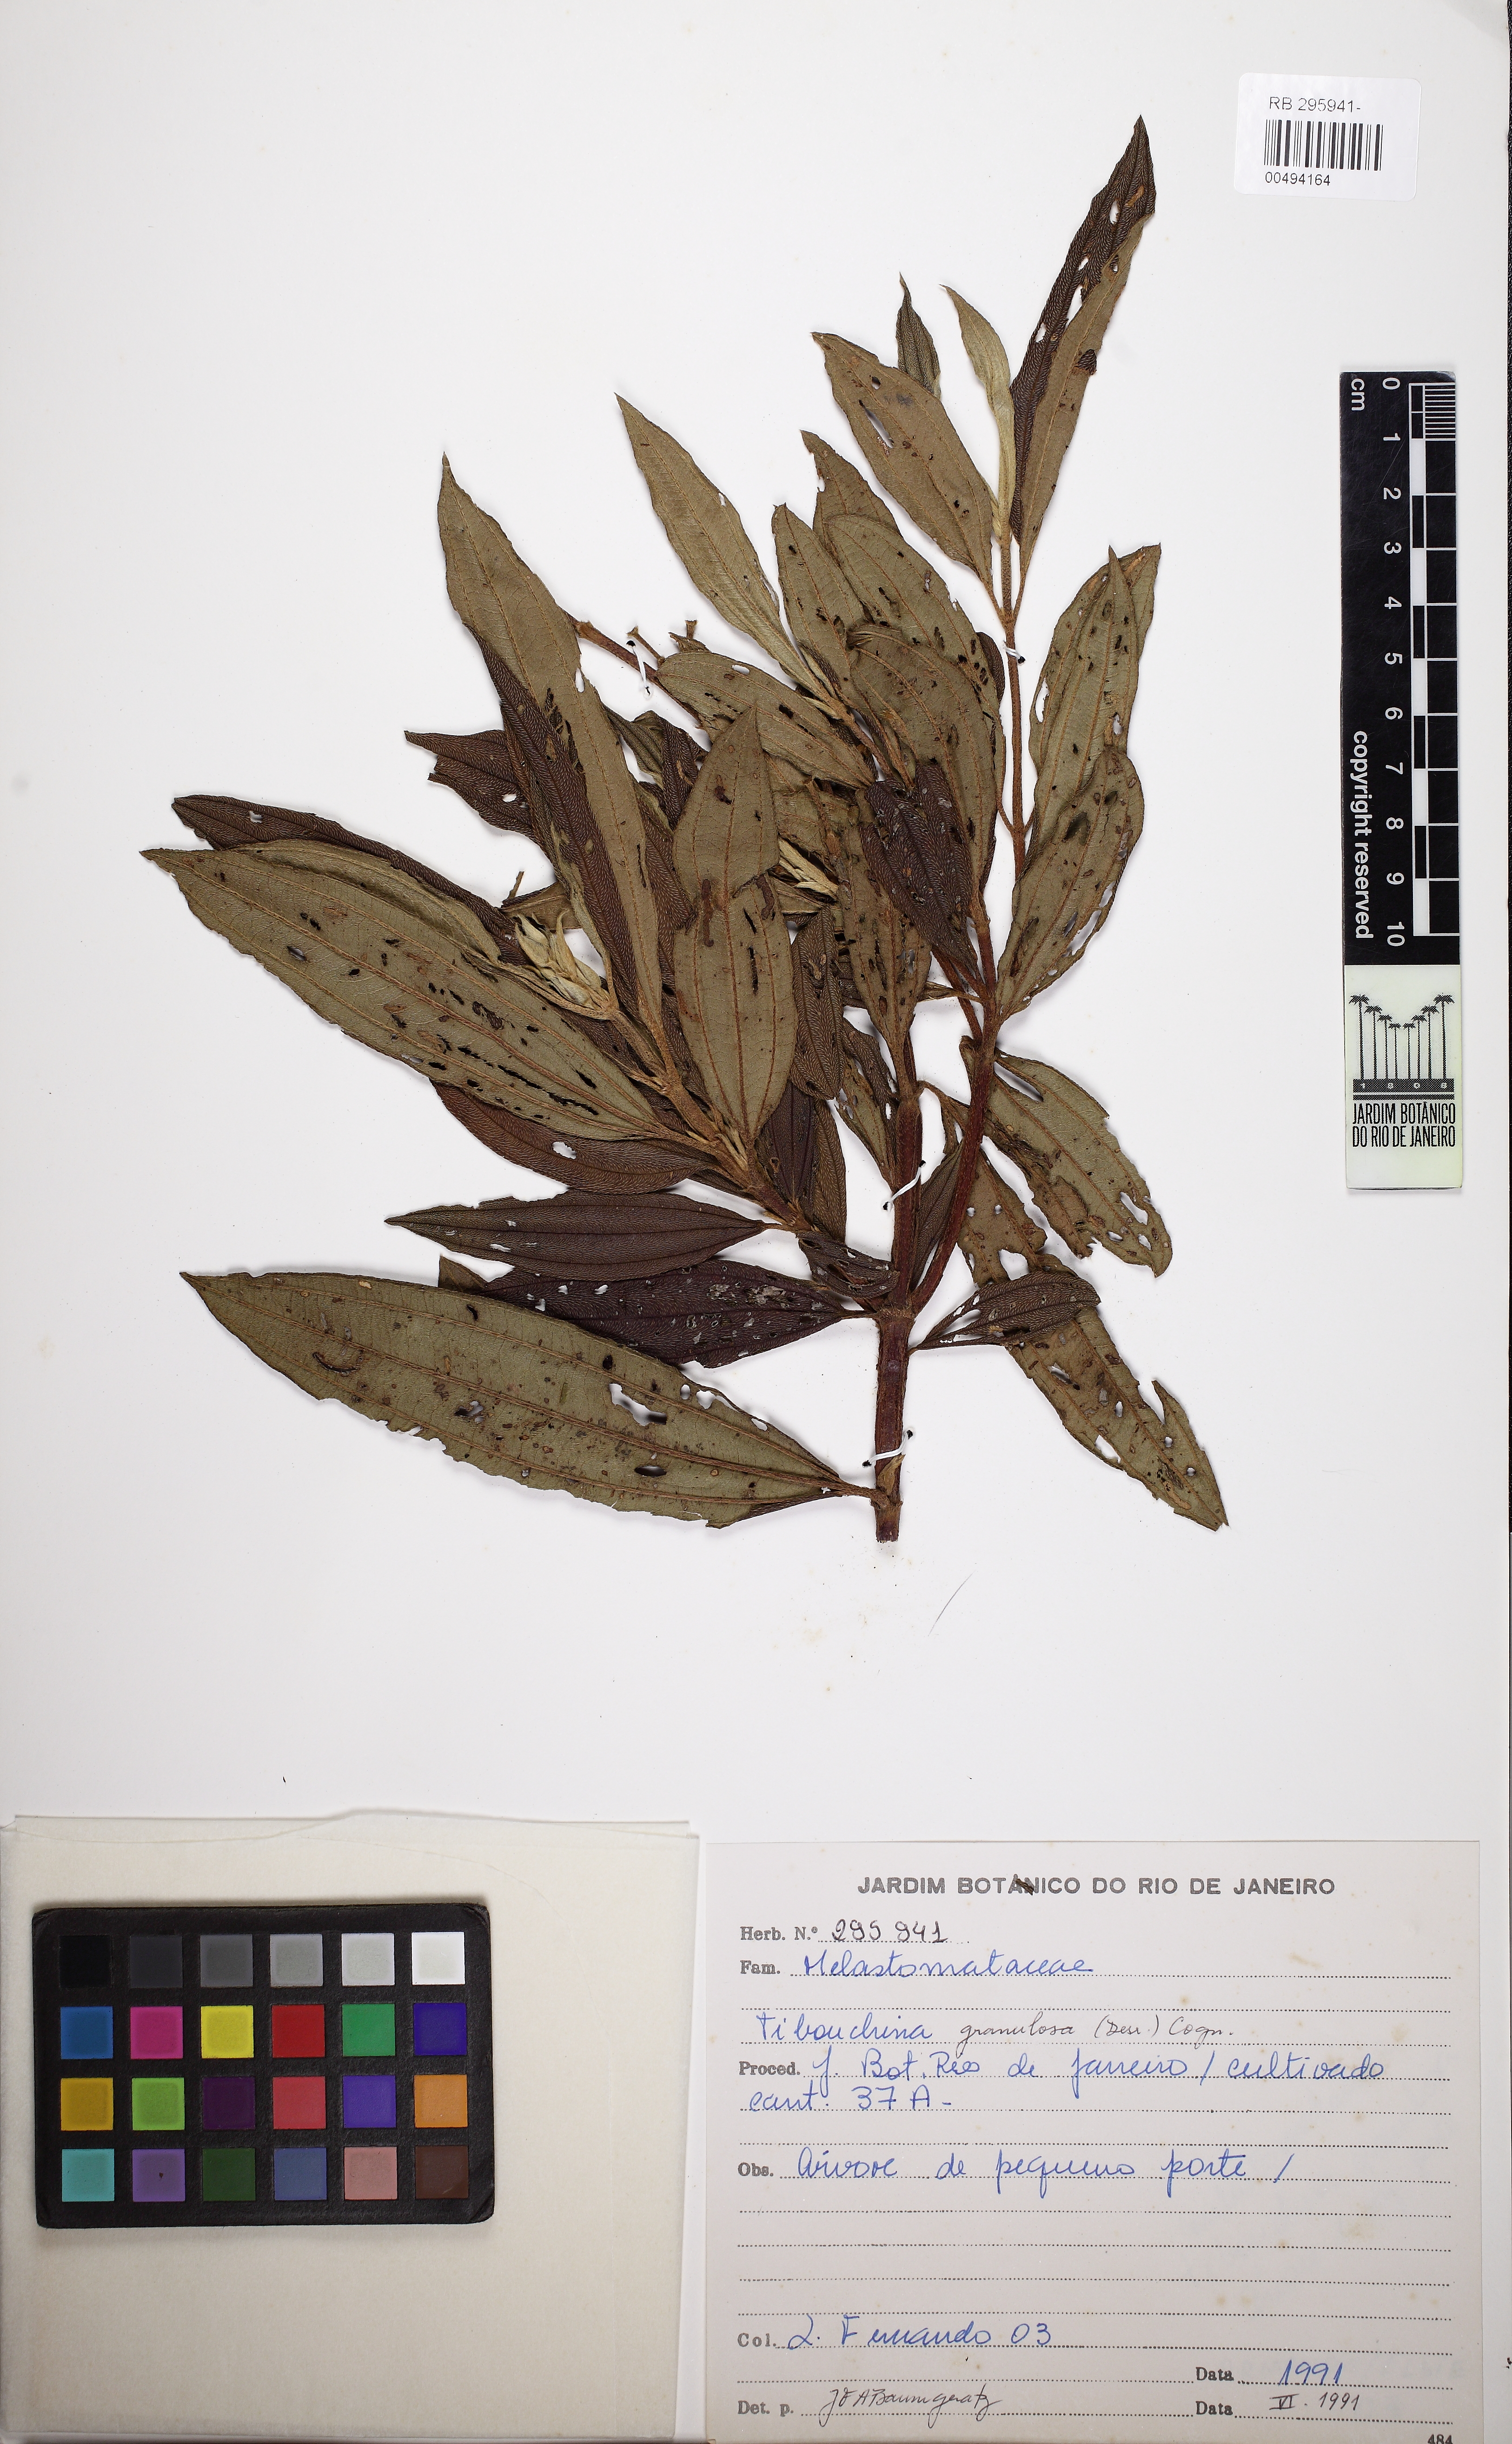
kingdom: Plantae
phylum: Tracheophyta
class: Magnoliopsida
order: Myrtales
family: Melastomataceae
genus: Pleroma
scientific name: Pleroma granulosum
